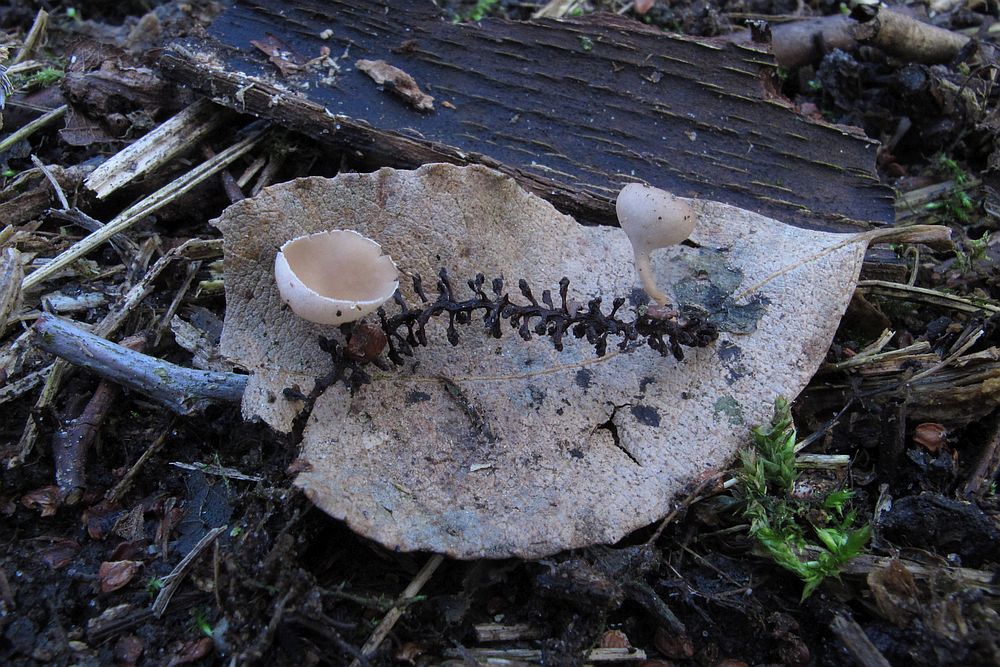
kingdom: Fungi
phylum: Ascomycota
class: Leotiomycetes
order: Helotiales
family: Sclerotiniaceae
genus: Ciboria
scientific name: Ciboria amentacea
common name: ellerakle-knoldskive
